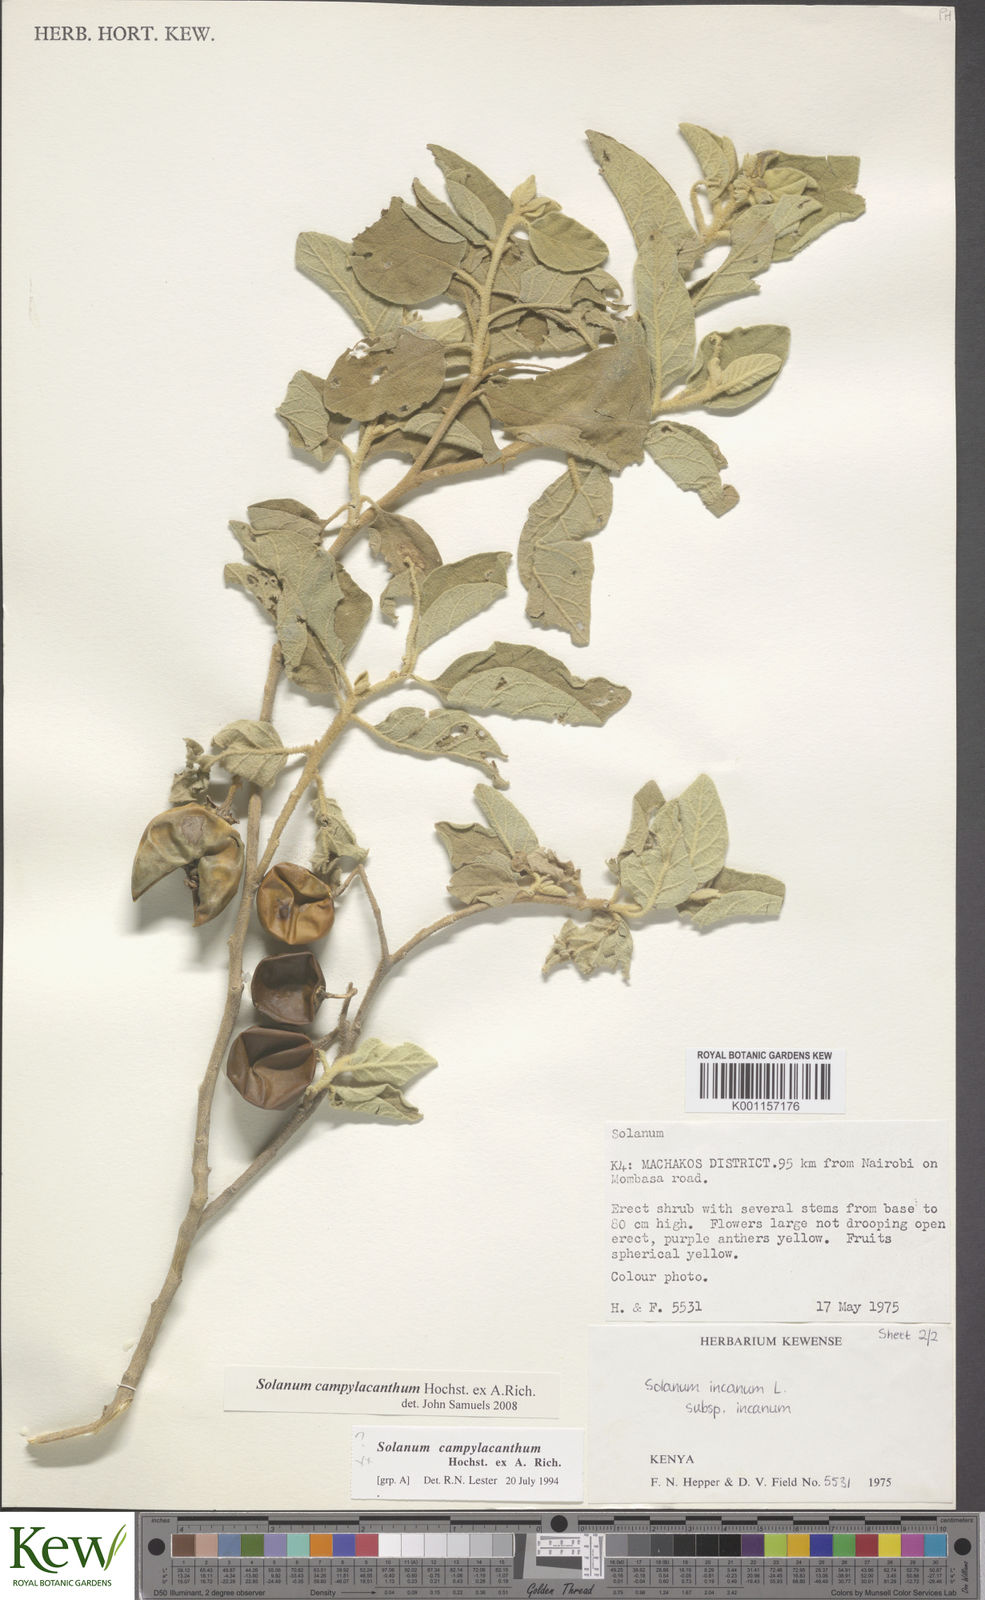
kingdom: Plantae
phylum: Tracheophyta
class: Magnoliopsida
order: Solanales
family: Solanaceae
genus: Solanum
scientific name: Solanum campylacanthum
